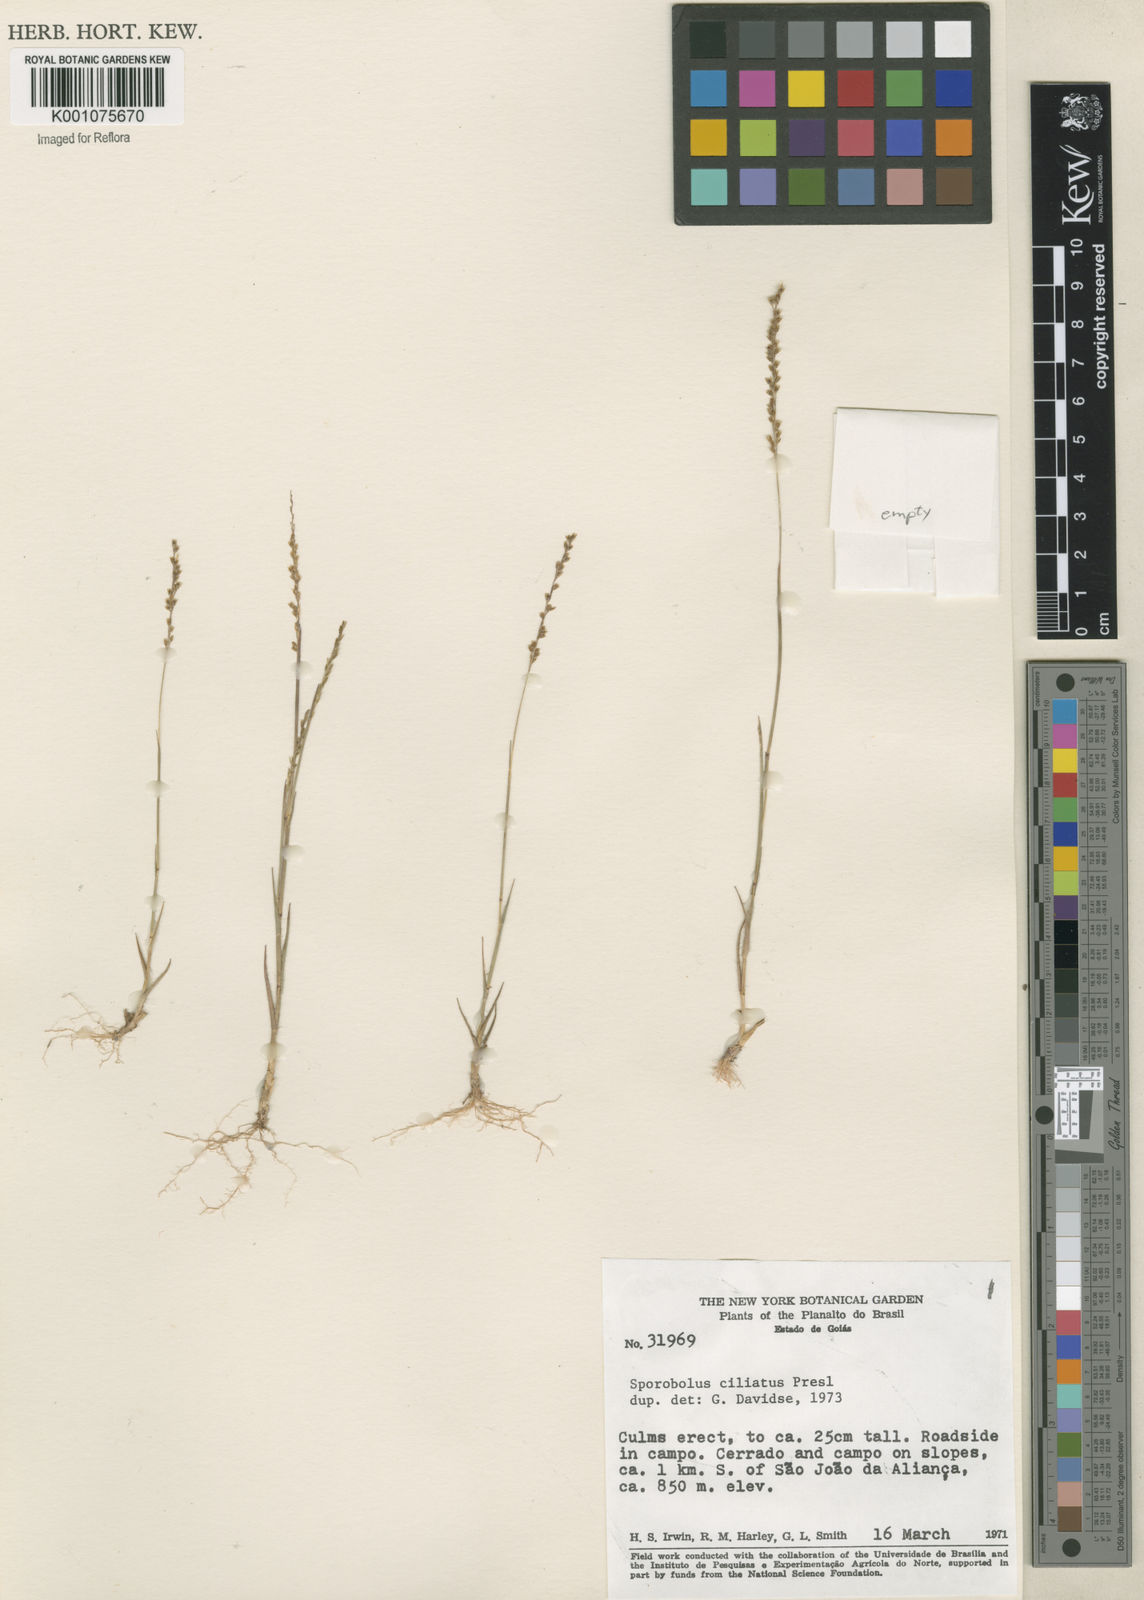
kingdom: Plantae
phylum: Tracheophyta
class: Liliopsida
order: Poales
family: Poaceae
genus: Sporobolus
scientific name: Sporobolus pilifer
